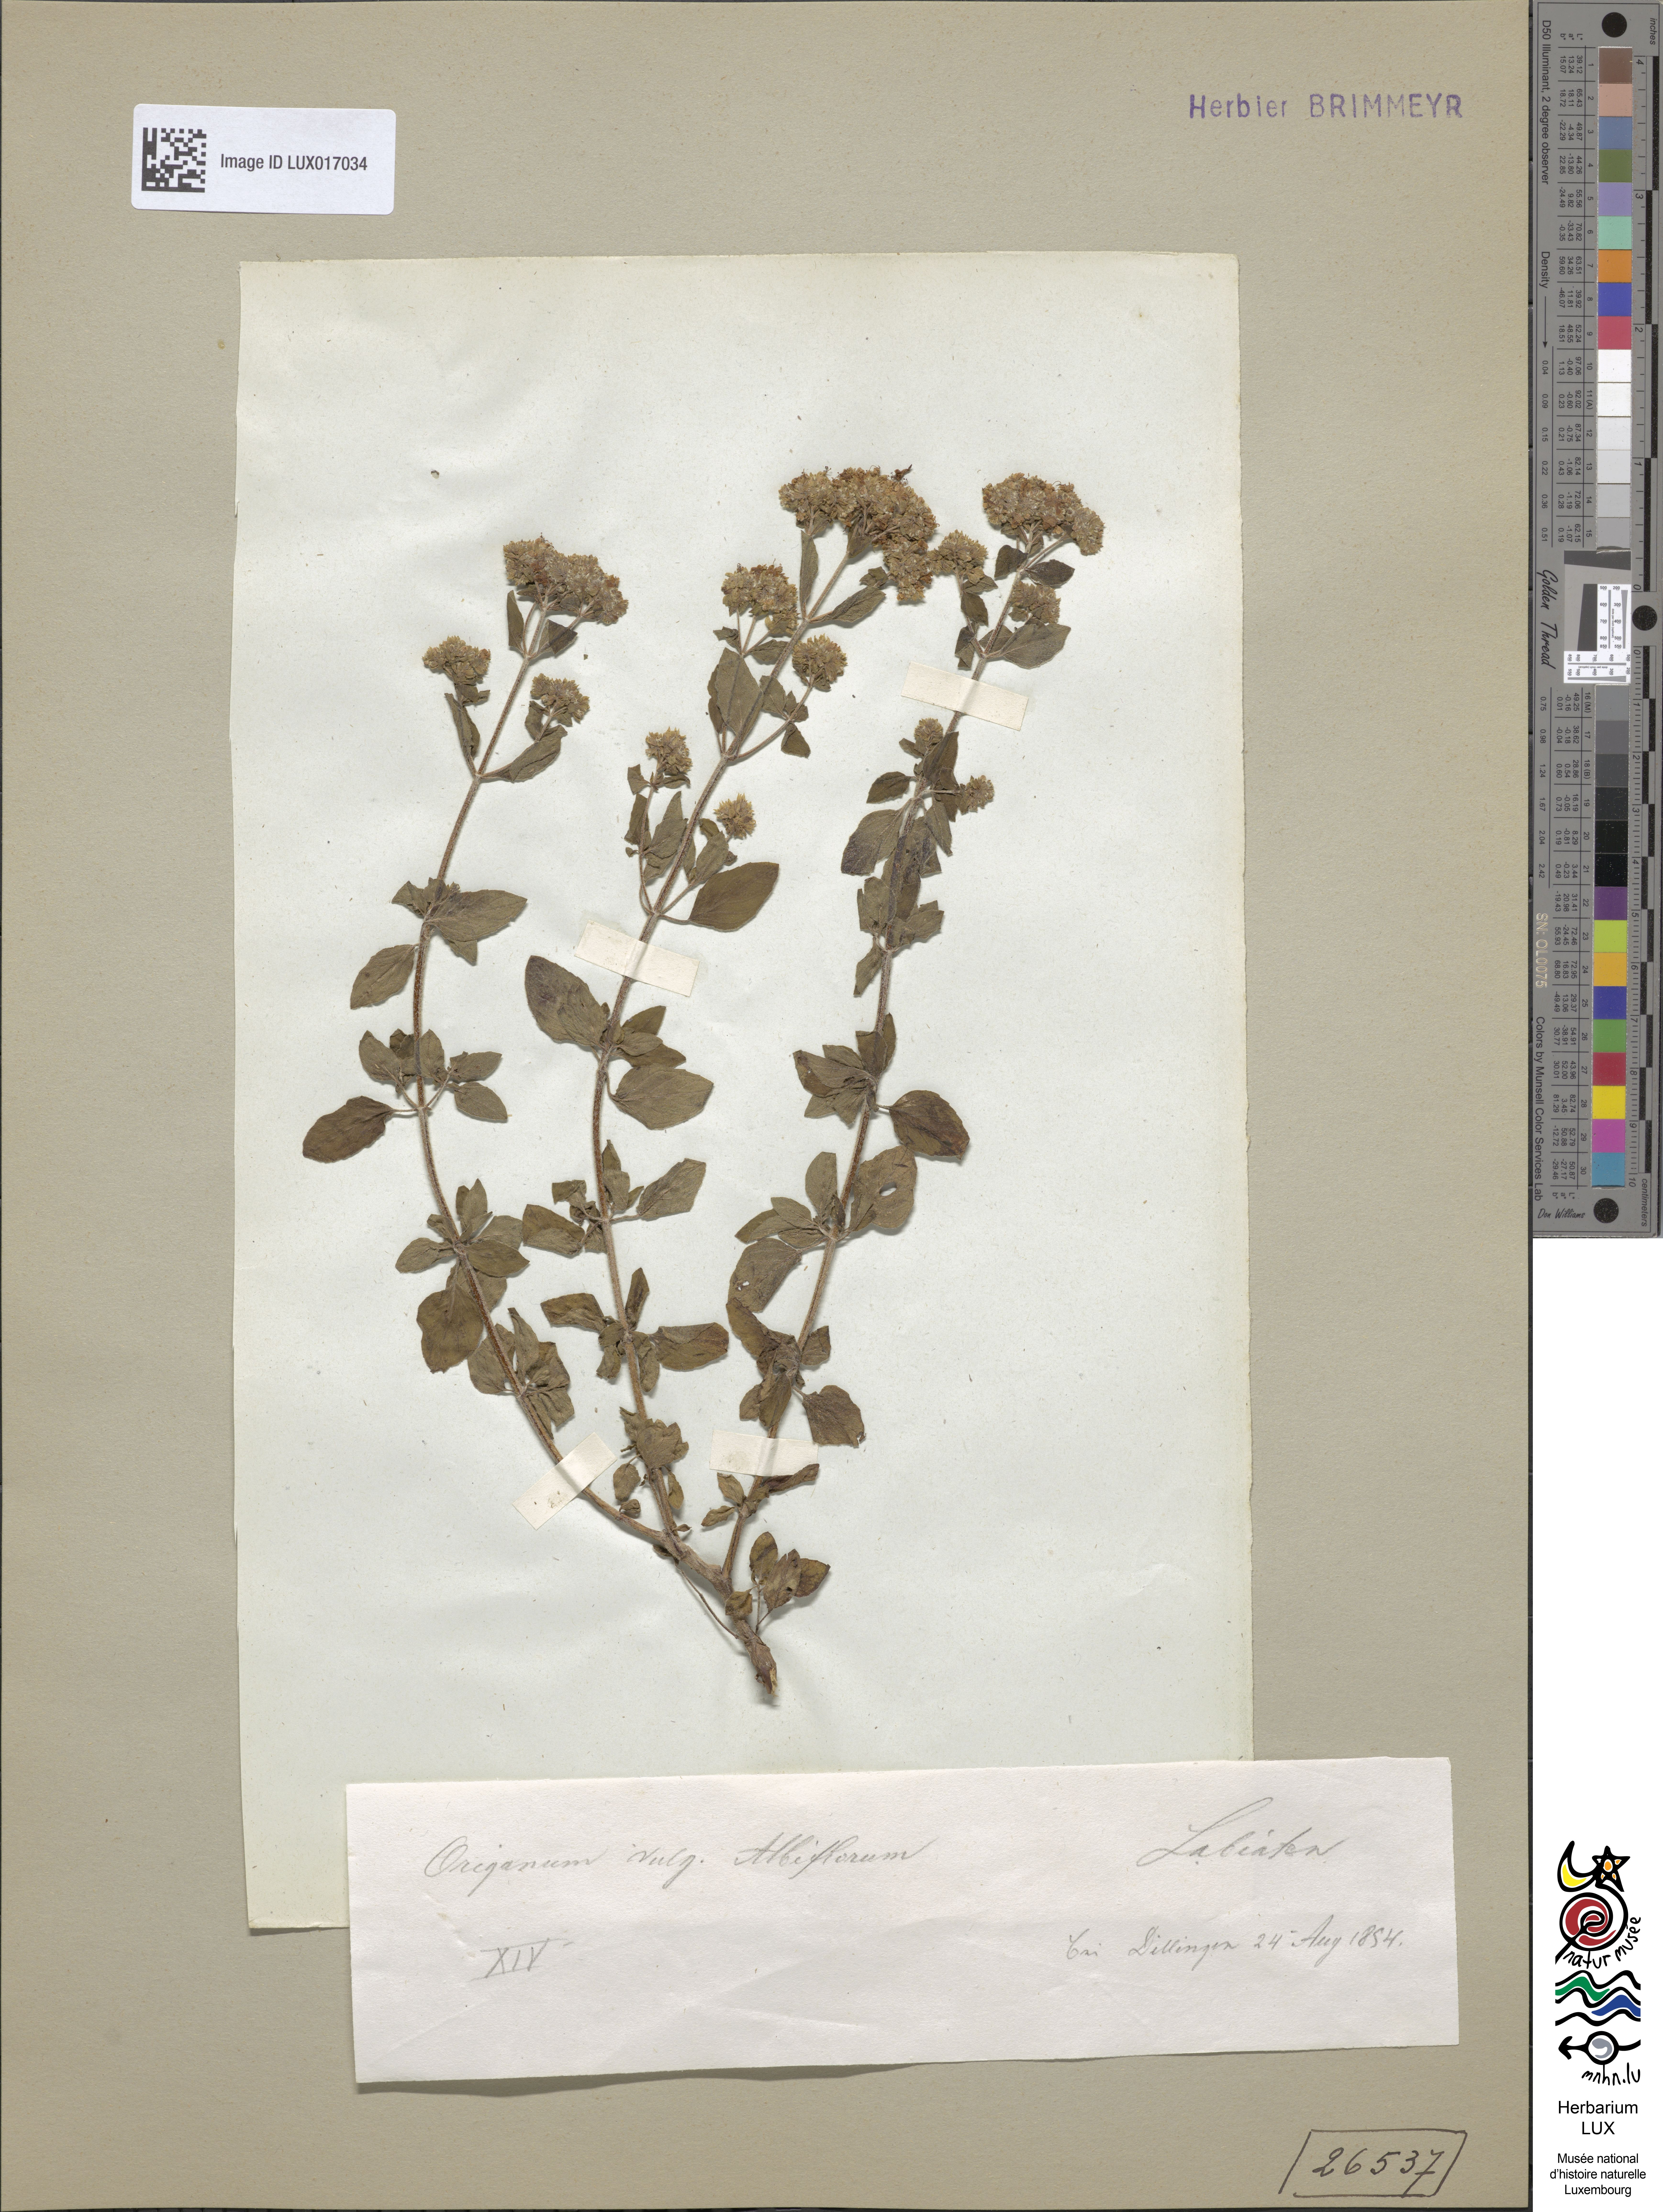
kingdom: Plantae
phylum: Tracheophyta
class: Magnoliopsida
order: Lamiales
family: Lamiaceae
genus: Origanum
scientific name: Origanum vulgare
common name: Wild marjoram
